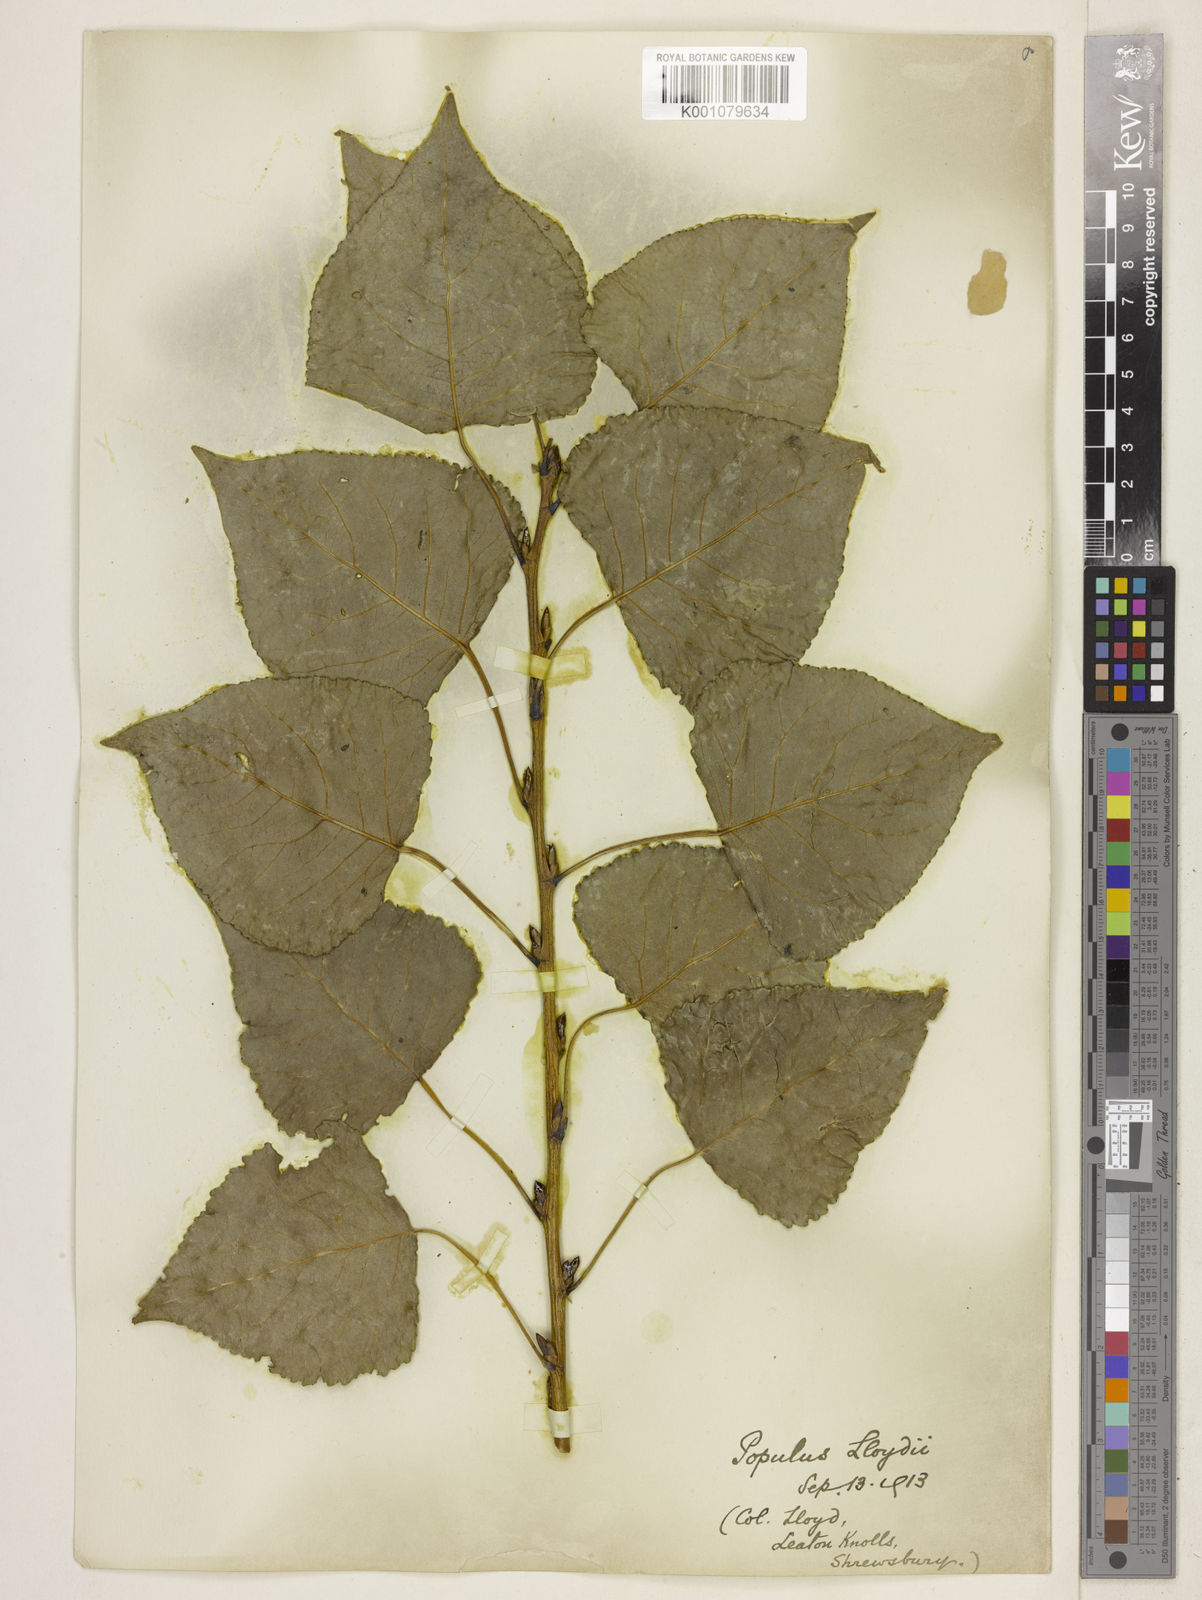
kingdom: Plantae
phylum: Tracheophyta
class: Magnoliopsida
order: Malpighiales
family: Salicaceae
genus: Populus
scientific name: Populus
